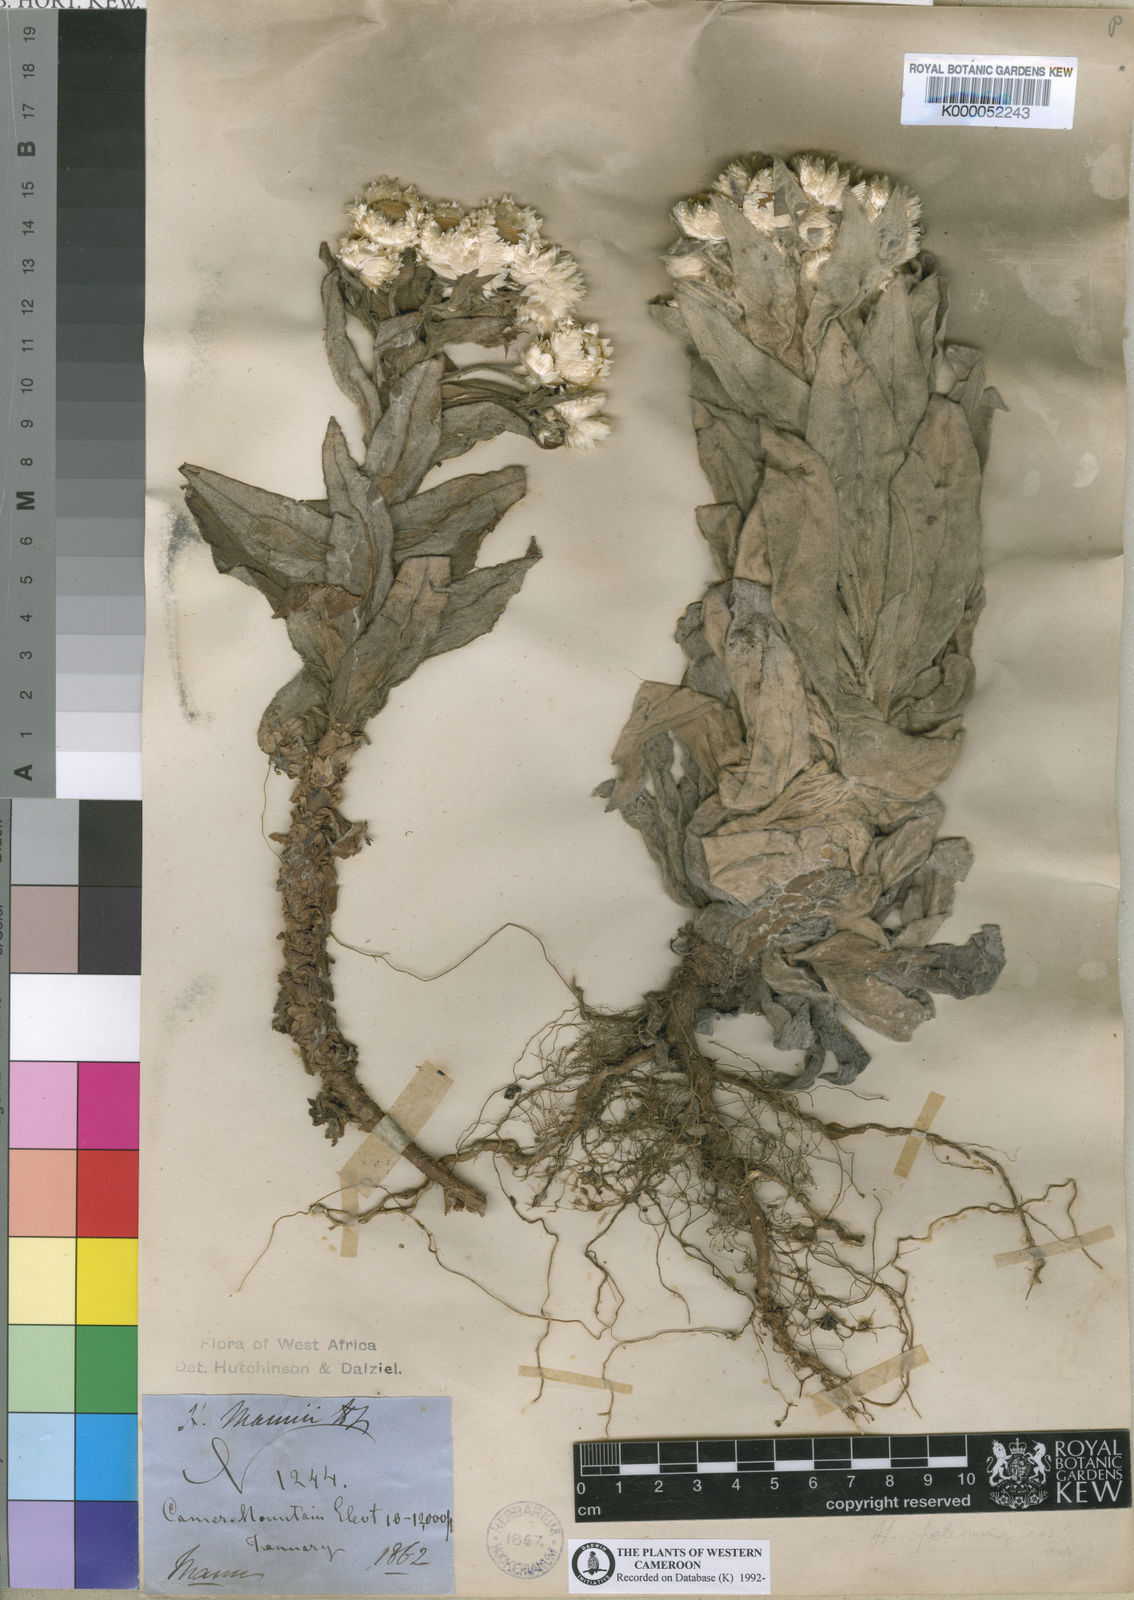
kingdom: Plantae
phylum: Tracheophyta
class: Magnoliopsida
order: Asterales
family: Asteraceae
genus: Helichrysum
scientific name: Helichrysum mannii
